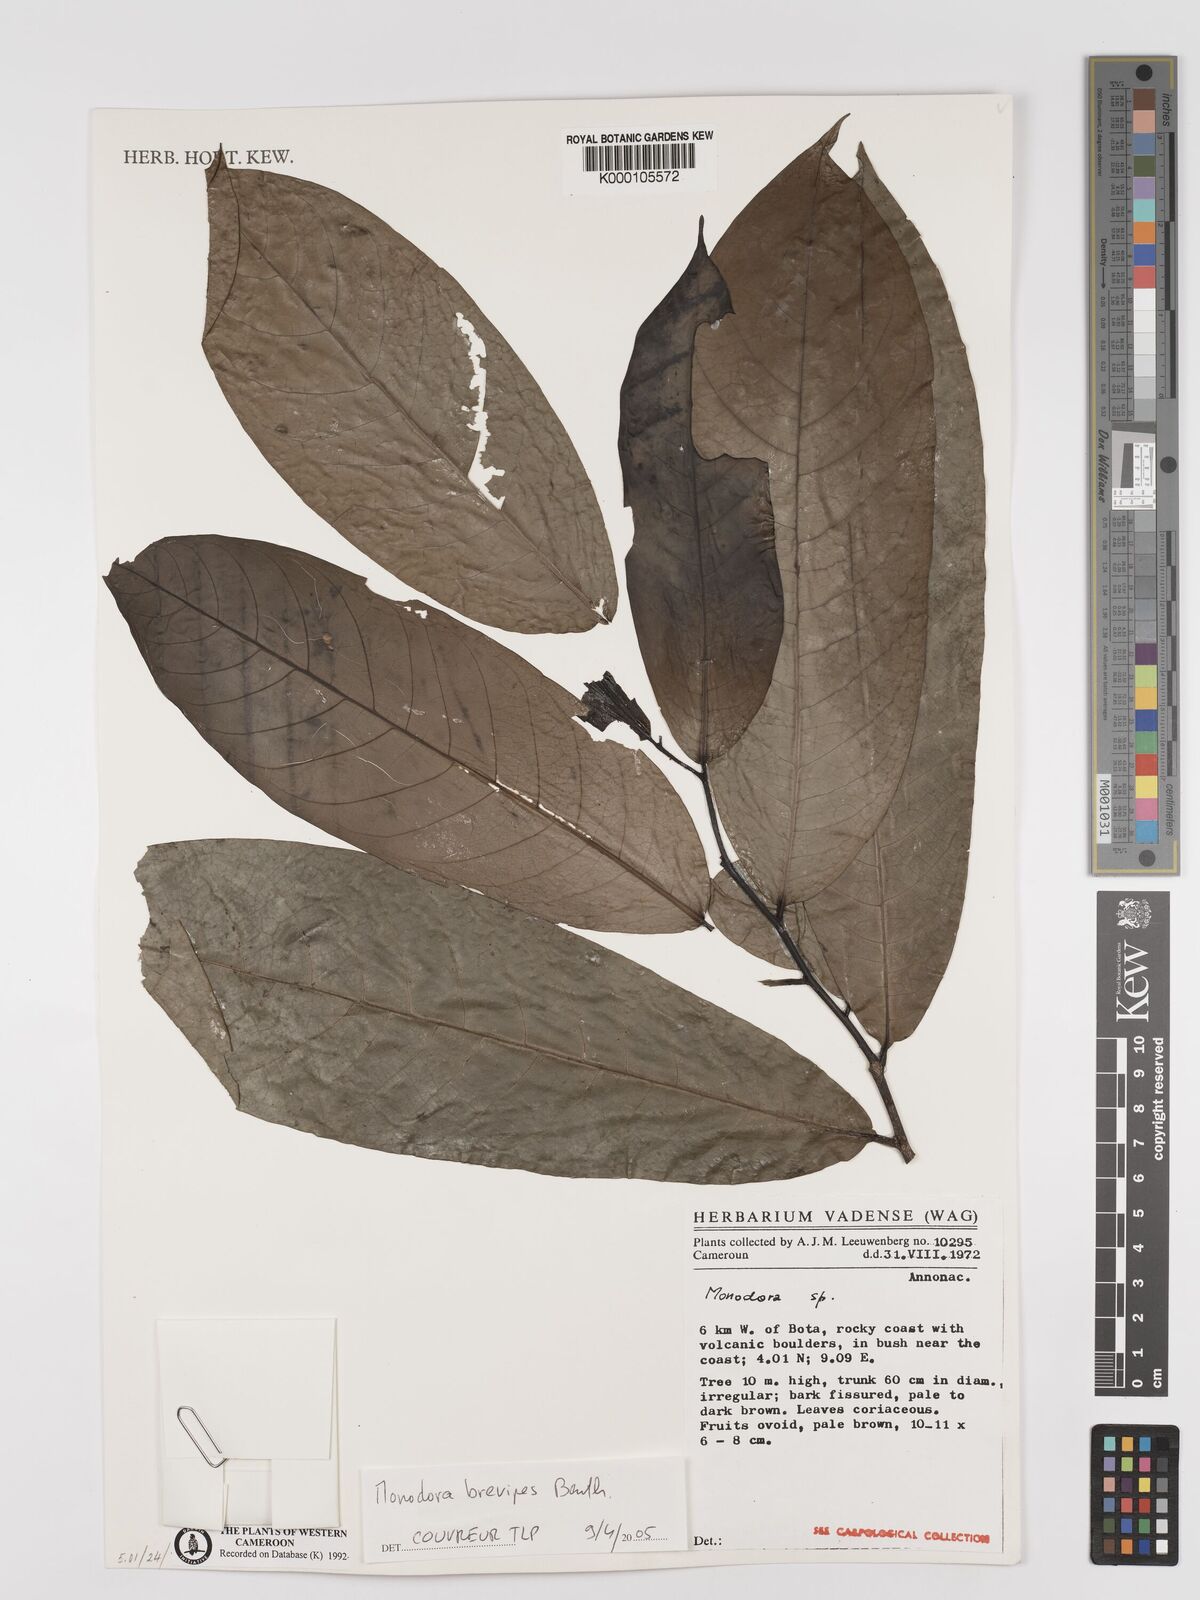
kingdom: Plantae
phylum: Tracheophyta
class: Magnoliopsida
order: Magnoliales
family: Annonaceae
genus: Monodora
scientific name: Monodora
